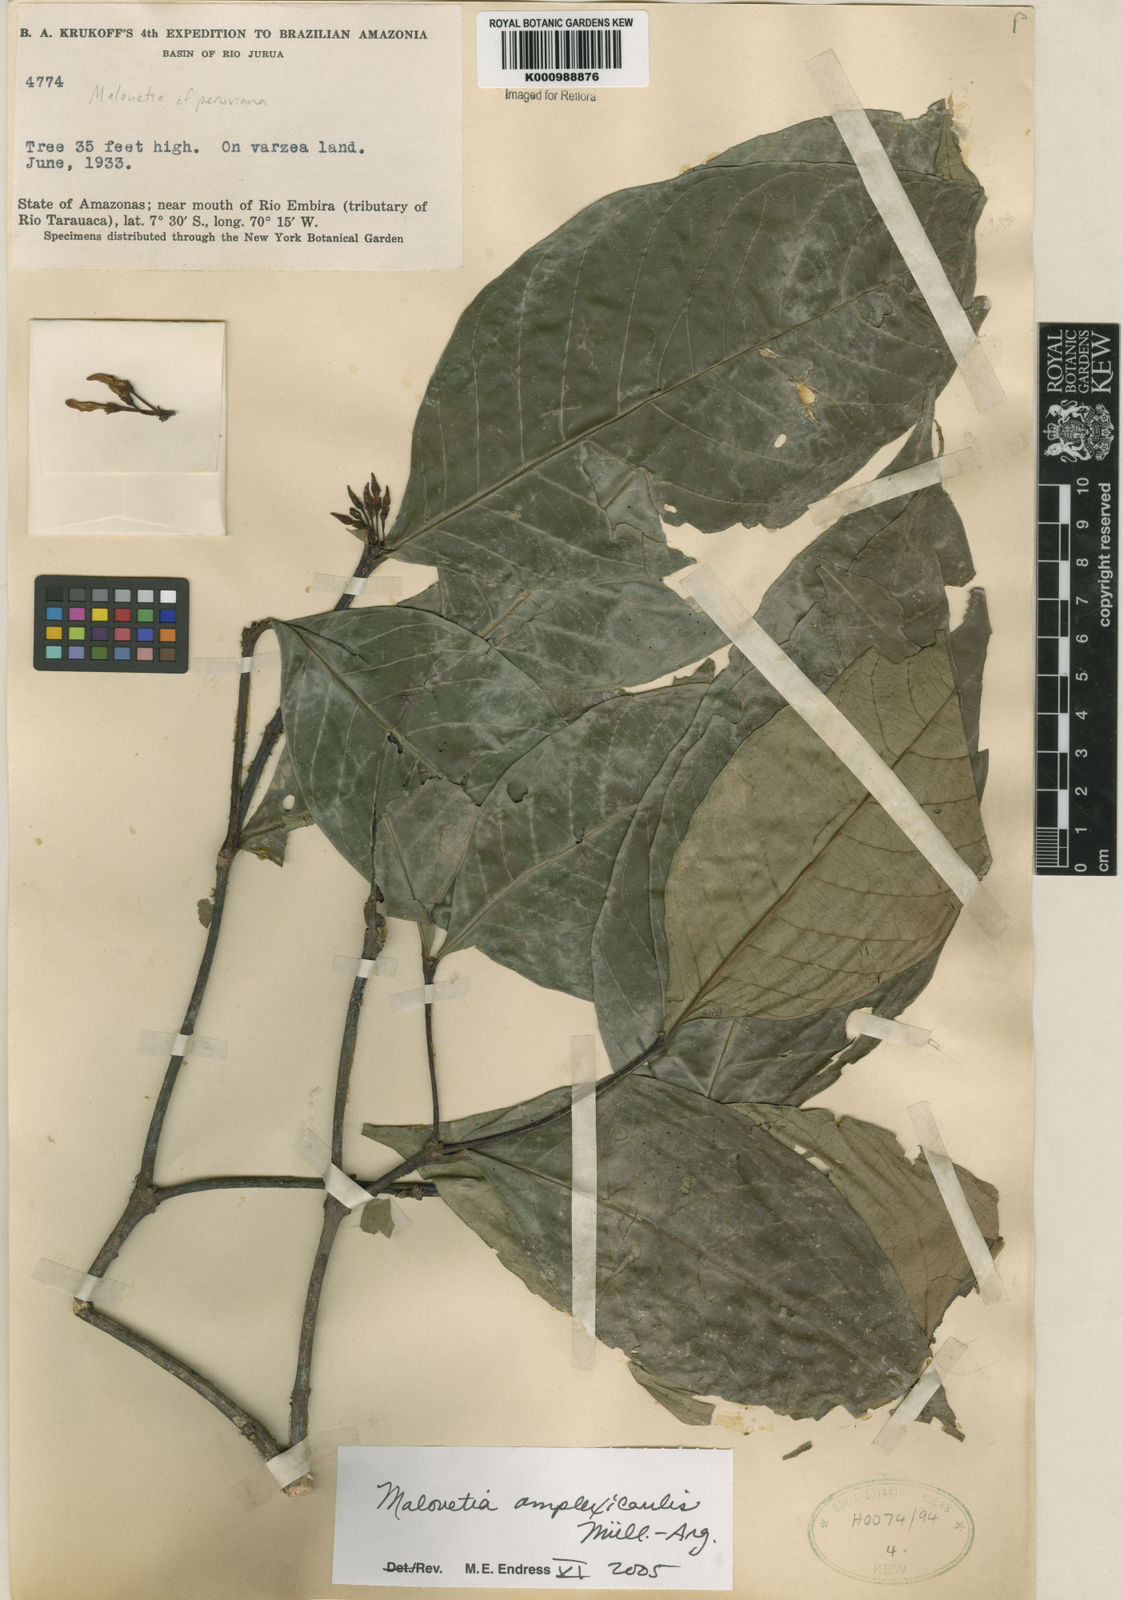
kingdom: Plantae
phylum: Tracheophyta
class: Magnoliopsida
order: Gentianales
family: Apocynaceae
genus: Malouetia
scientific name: Malouetia
